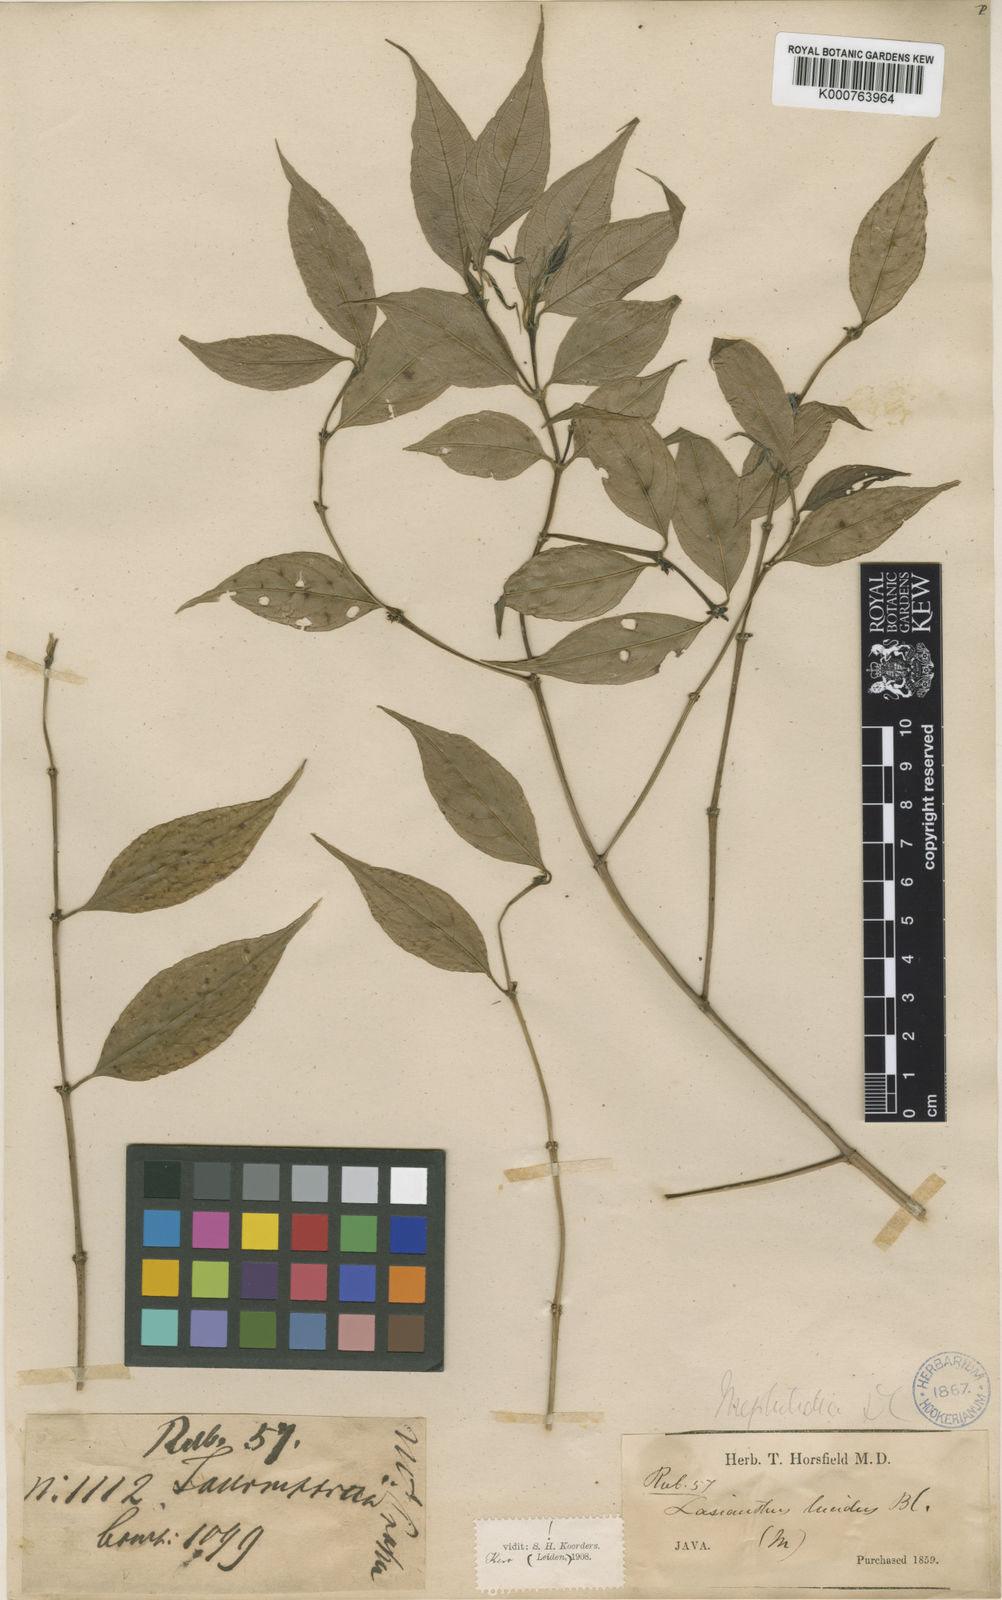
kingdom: Plantae
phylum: Tracheophyta
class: Magnoliopsida
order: Gentianales
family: Rubiaceae
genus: Lasianthus
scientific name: Lasianthus lucidus
